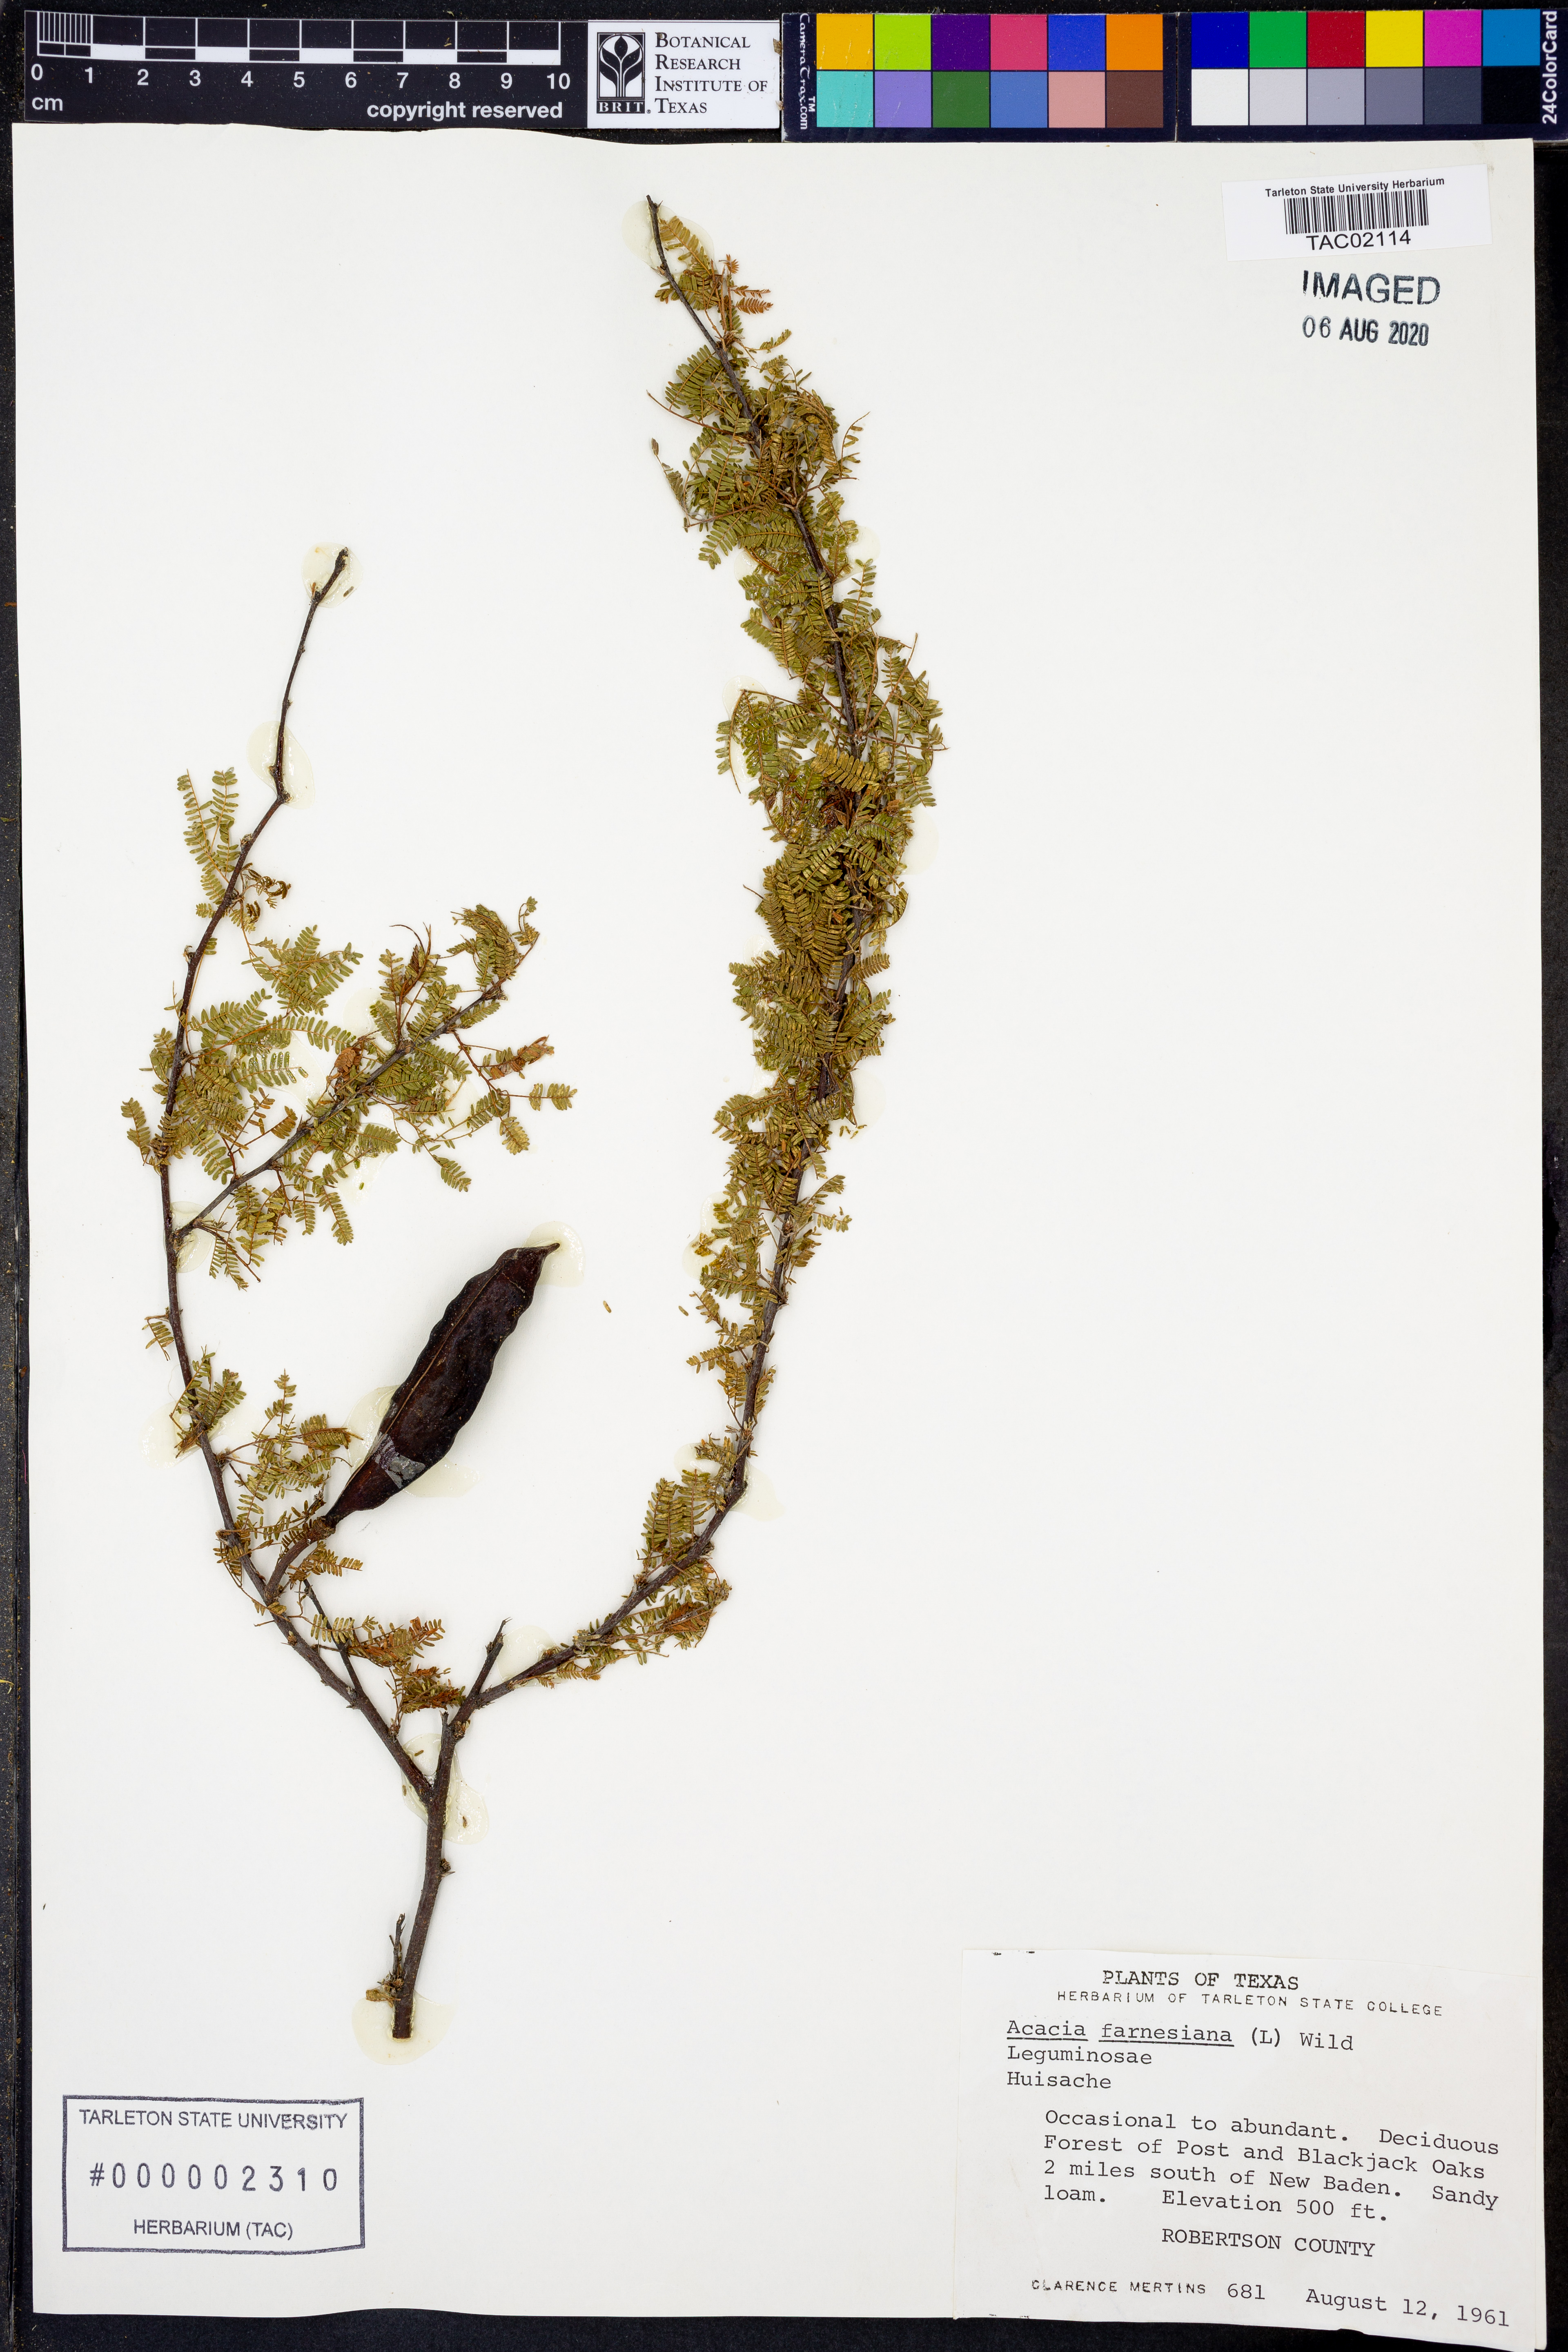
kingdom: Plantae
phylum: Tracheophyta
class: Magnoliopsida
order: Fabales
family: Fabaceae
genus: Vachellia
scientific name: Vachellia farnesiana
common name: Sweet acacia
